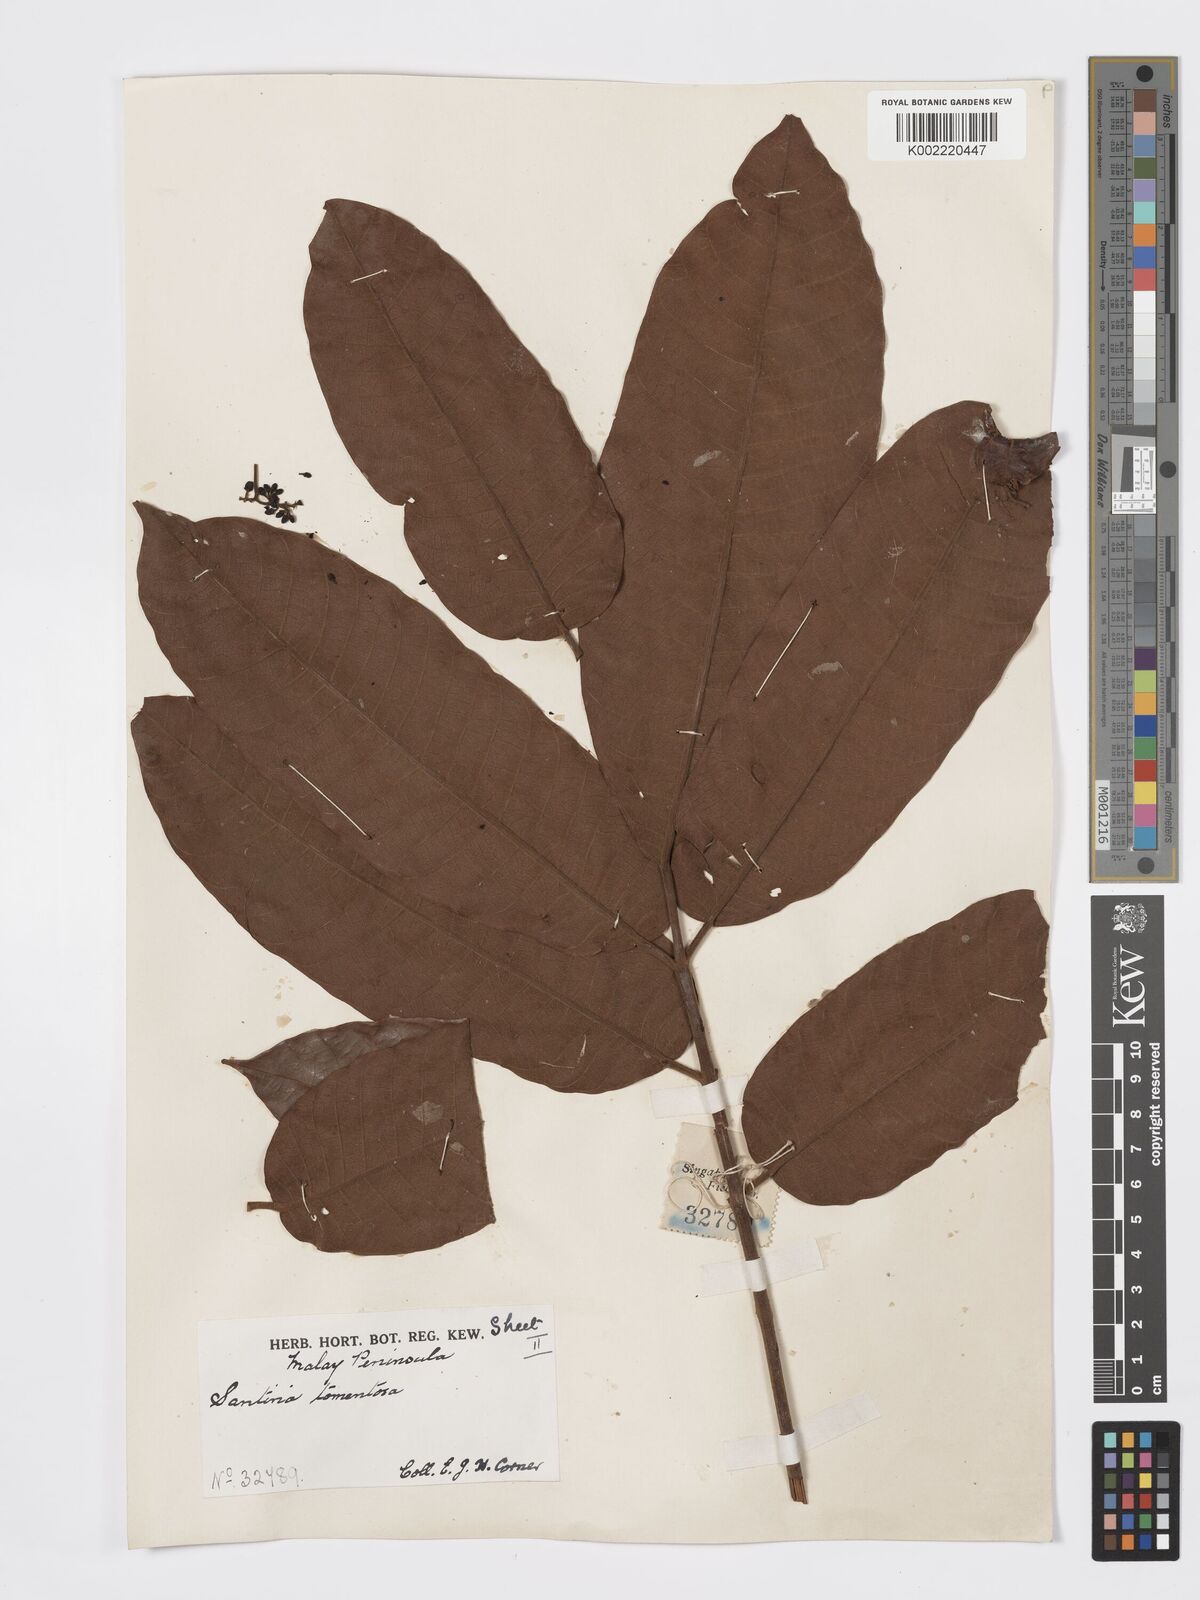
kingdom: Plantae
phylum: Tracheophyta
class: Magnoliopsida
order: Sapindales
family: Burseraceae
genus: Santiria
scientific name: Santiria tomentosa
